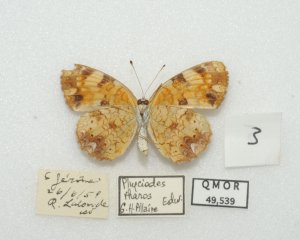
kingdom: Animalia
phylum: Arthropoda
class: Insecta
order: Lepidoptera
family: Nymphalidae
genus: Phyciodes
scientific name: Phyciodes tharos
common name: Northern Crescent
